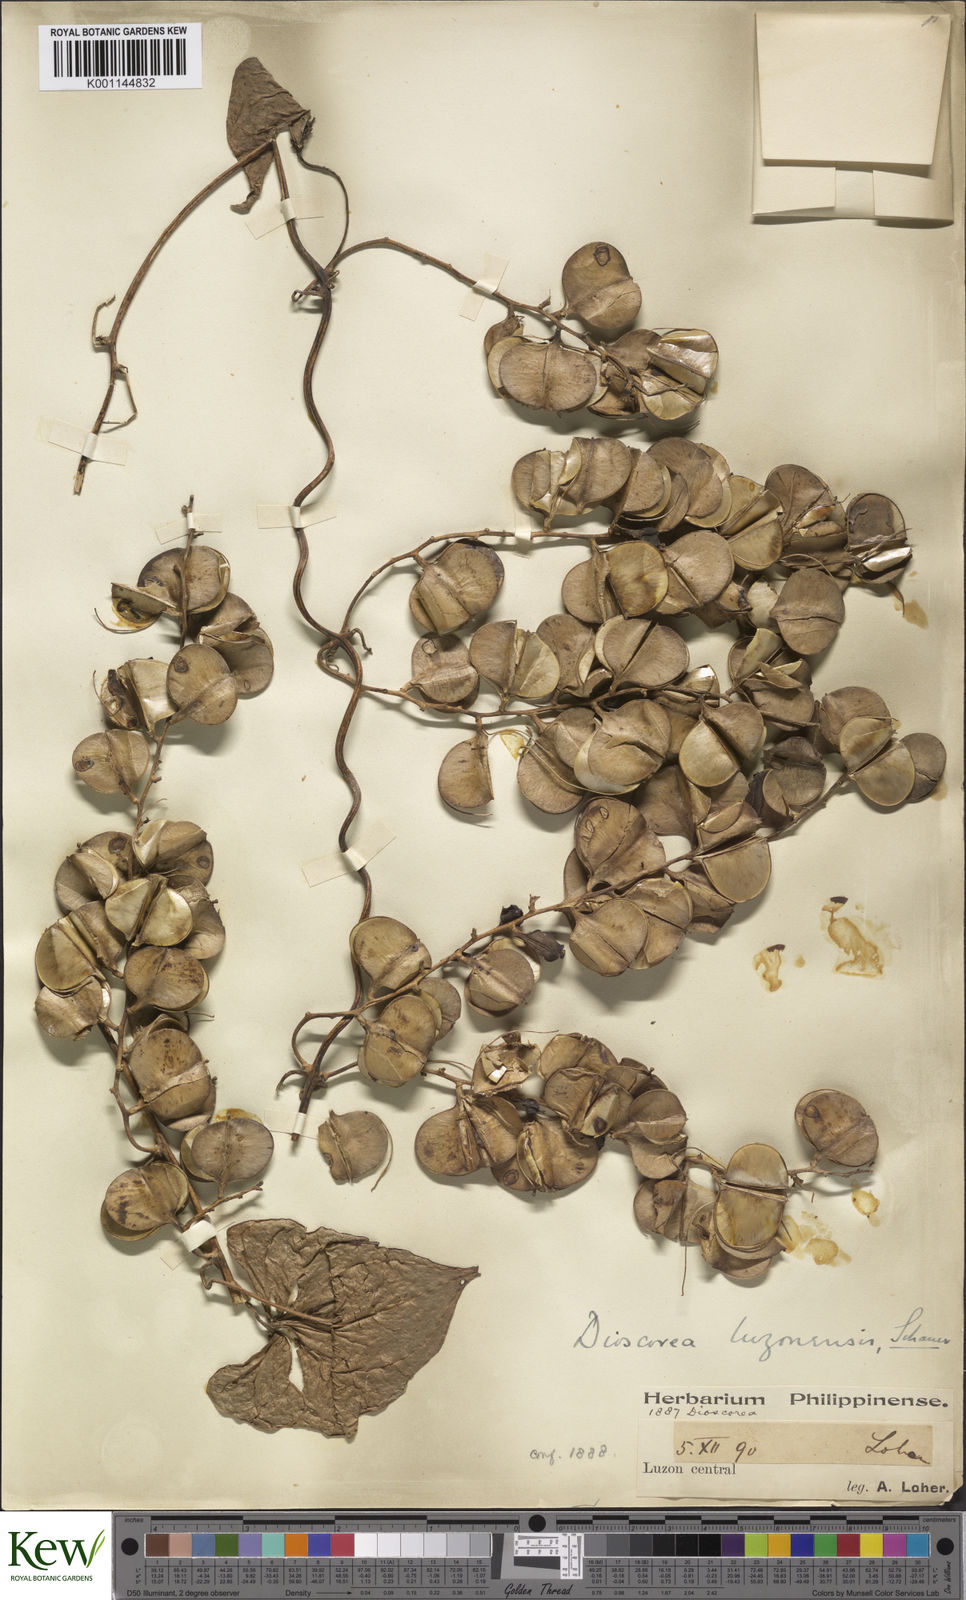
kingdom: Plantae
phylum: Tracheophyta
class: Liliopsida
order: Dioscoreales
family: Dioscoreaceae
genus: Dioscorea
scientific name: Dioscorea luzonensis
